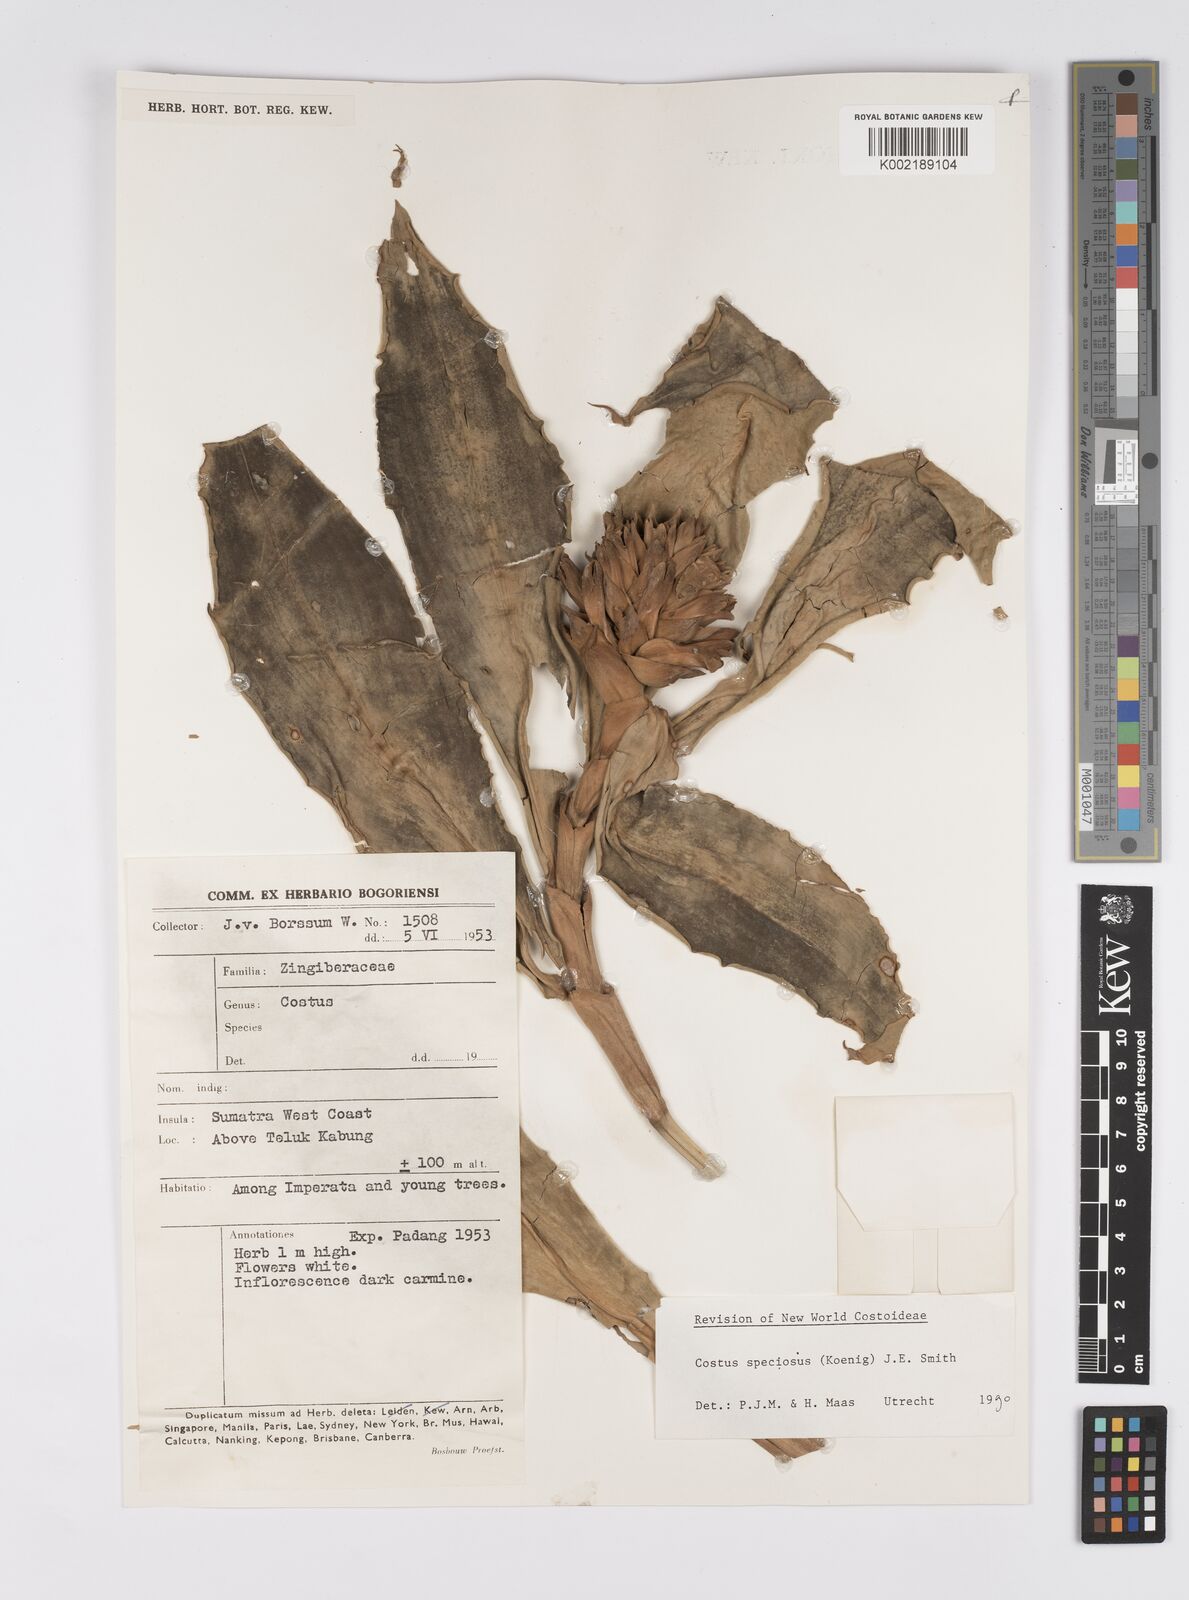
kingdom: Plantae
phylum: Tracheophyta
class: Liliopsida
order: Zingiberales
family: Costaceae
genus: Hellenia
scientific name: Hellenia speciosa
